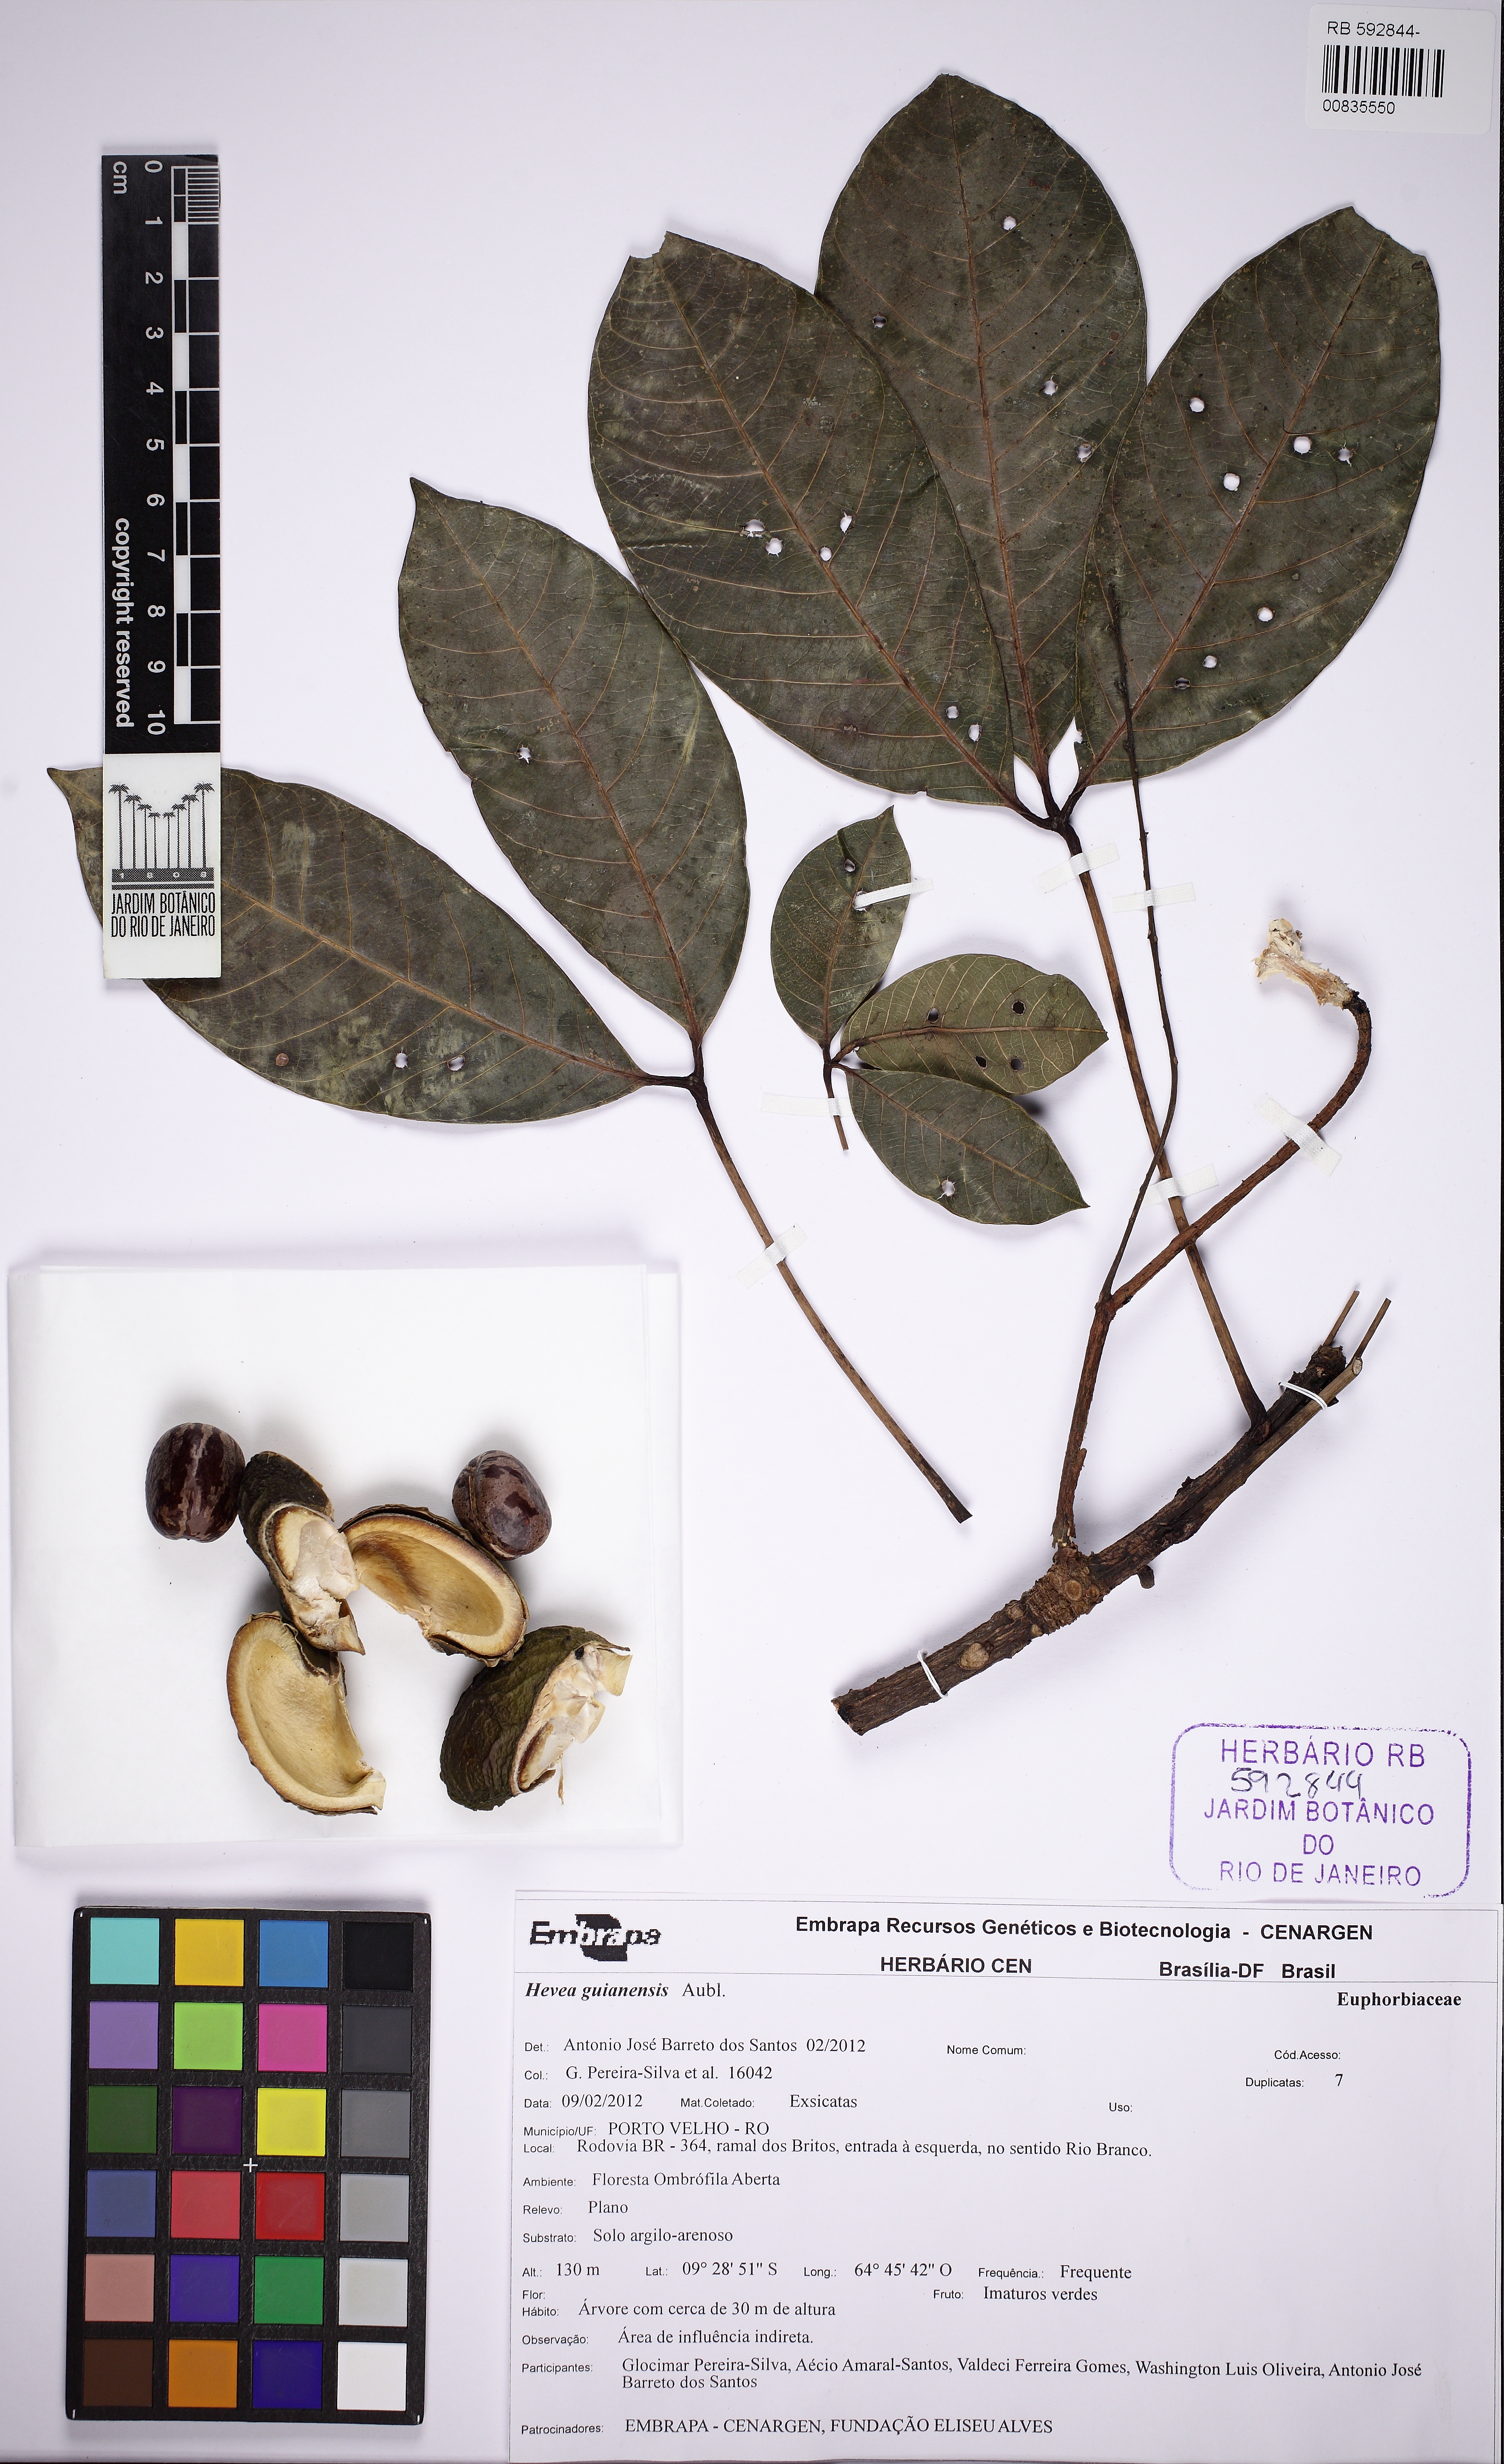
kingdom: Plantae
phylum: Tracheophyta
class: Magnoliopsida
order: Malpighiales
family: Euphorbiaceae
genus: Hevea
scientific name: Hevea guianensis
